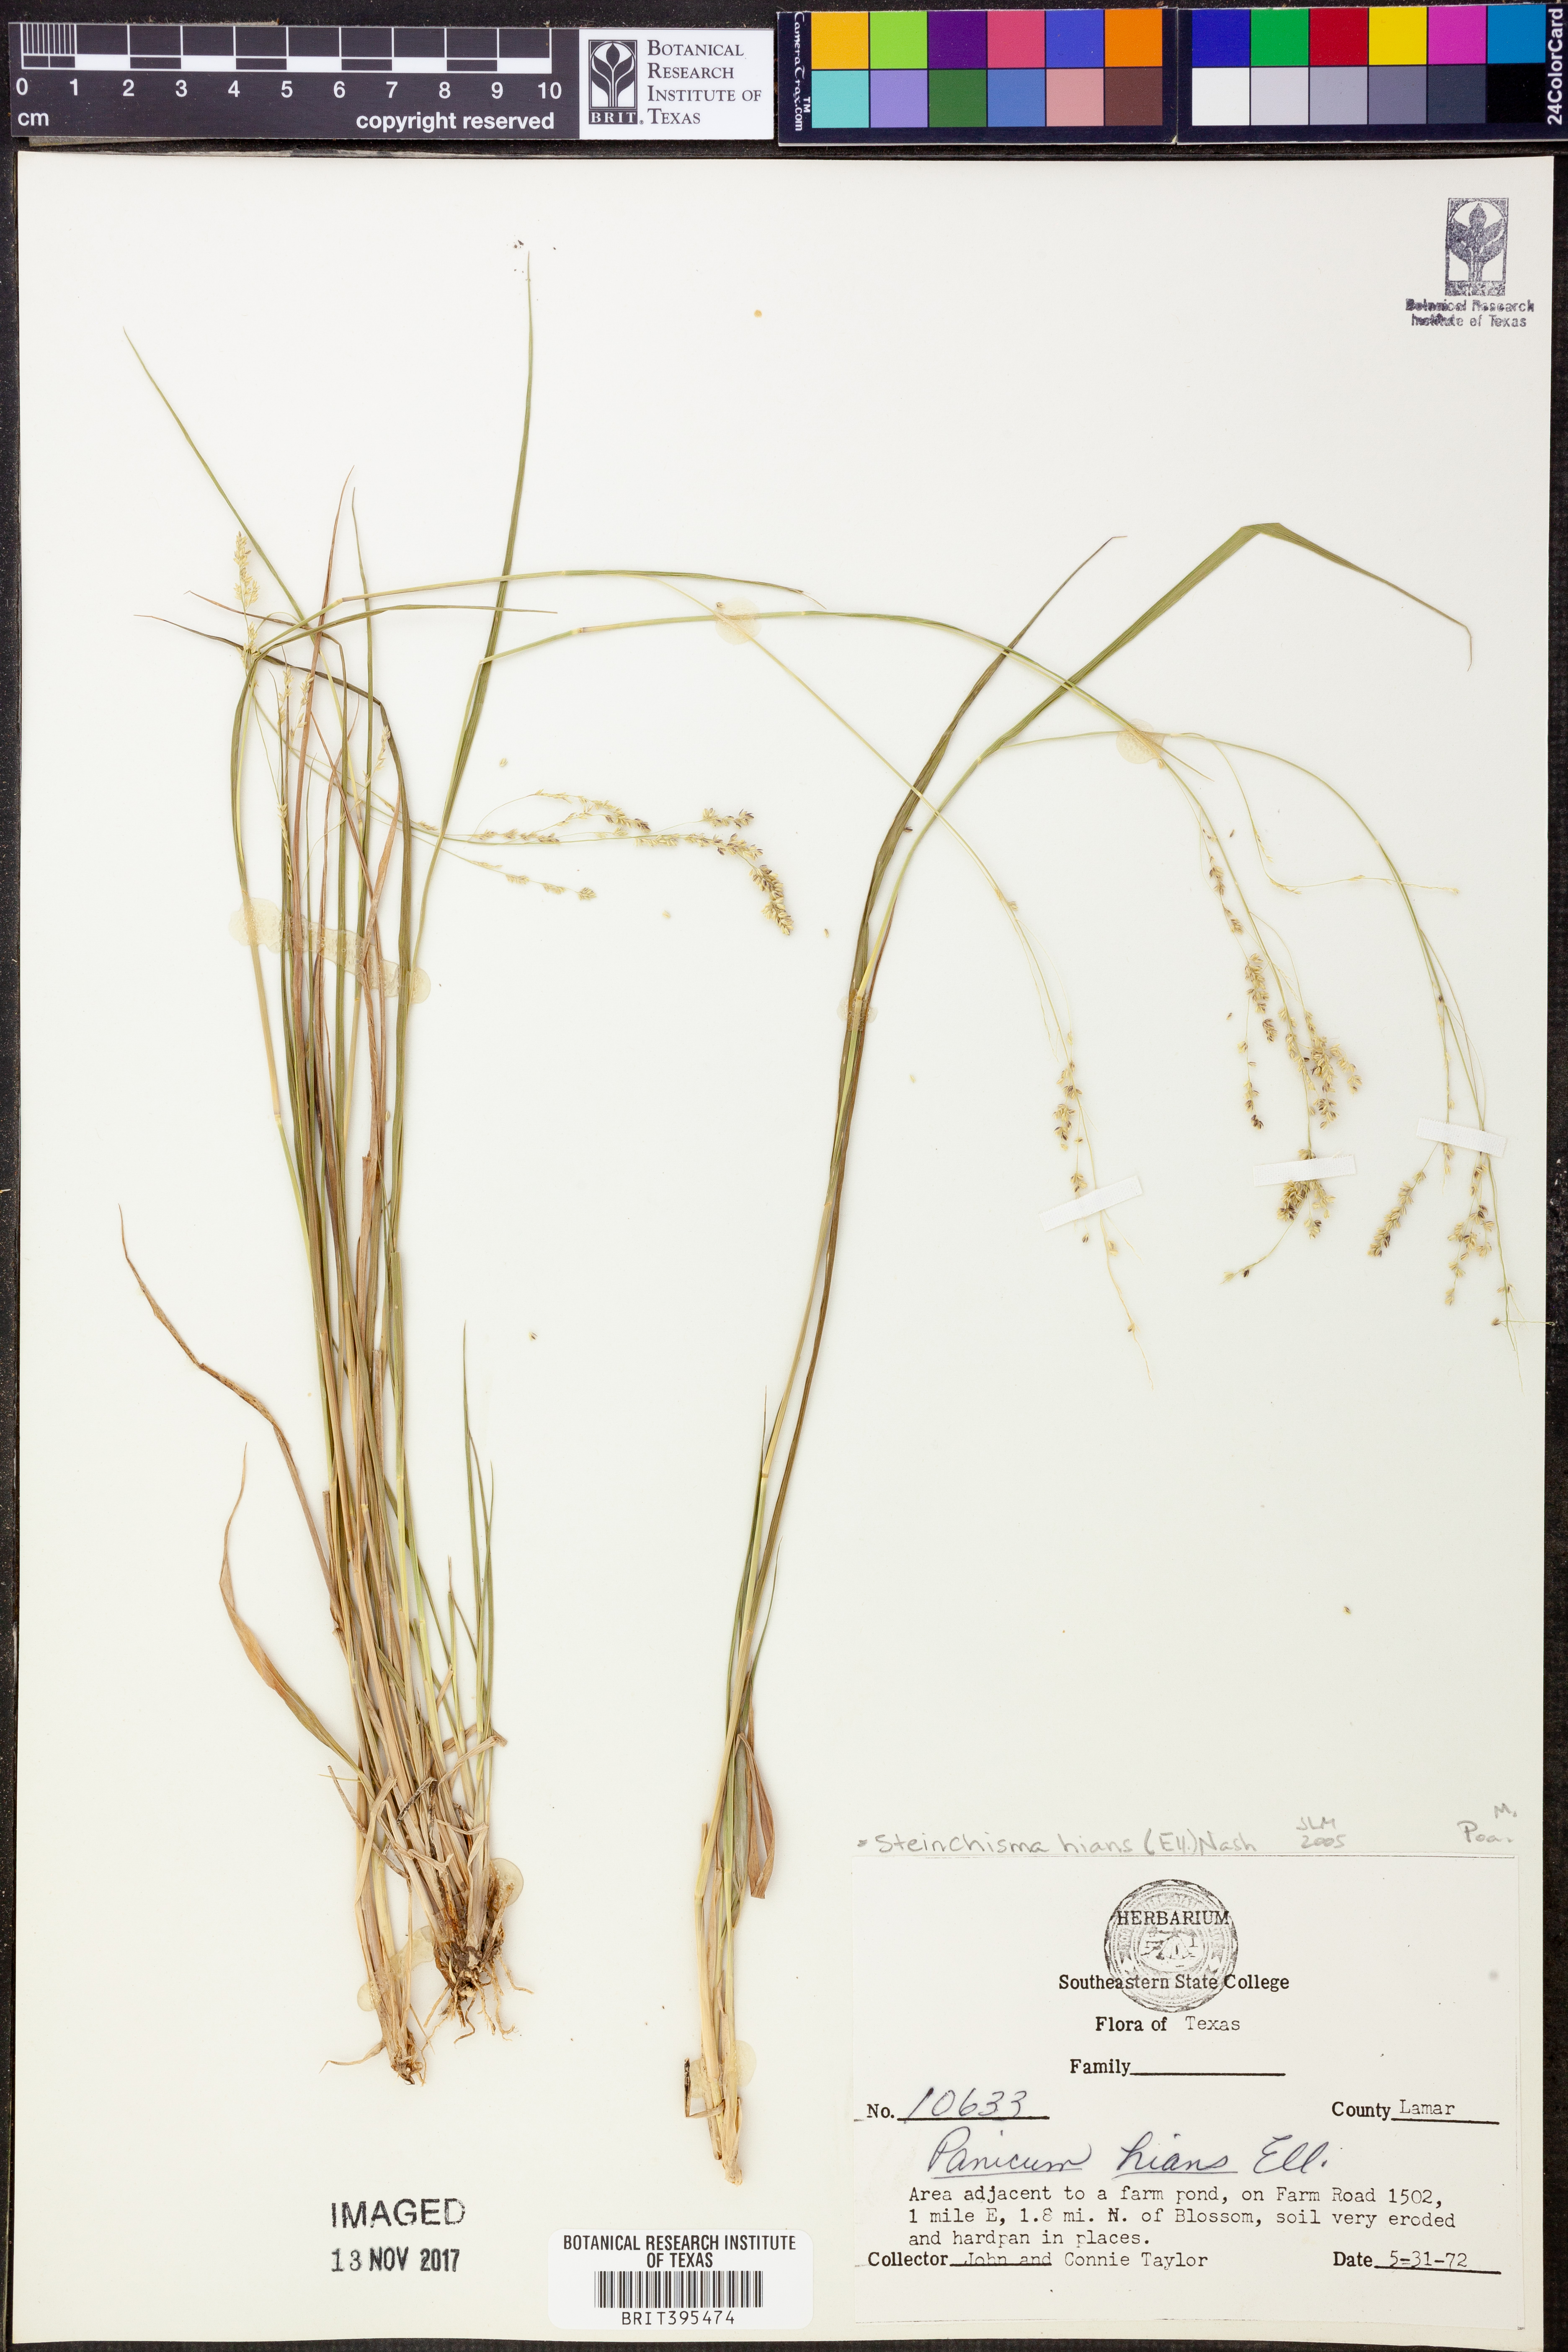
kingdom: Plantae
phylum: Tracheophyta
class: Liliopsida
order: Poales
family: Poaceae
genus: Steinchisma
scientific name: Steinchisma hians
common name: Gaping panic grass
